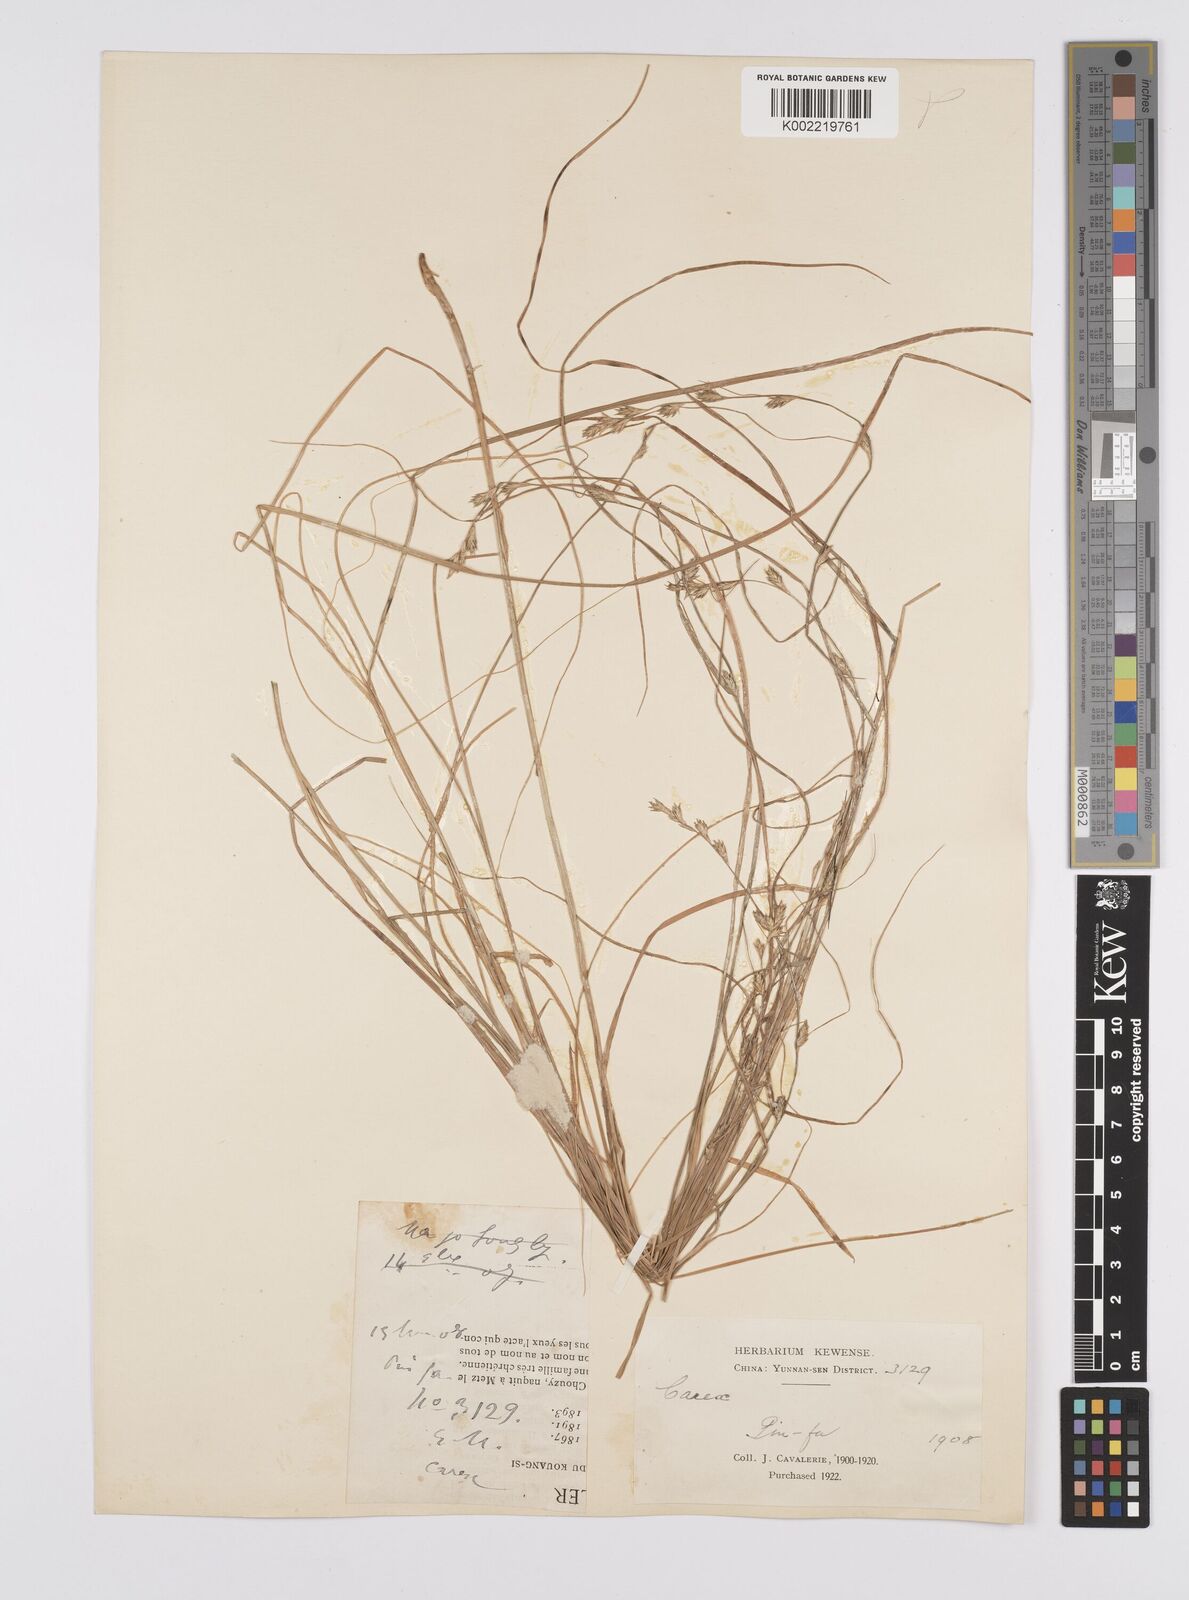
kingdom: Plantae
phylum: Tracheophyta
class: Liliopsida
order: Poales
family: Cyperaceae
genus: Carex
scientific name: Carex remota
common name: Remote sedge
